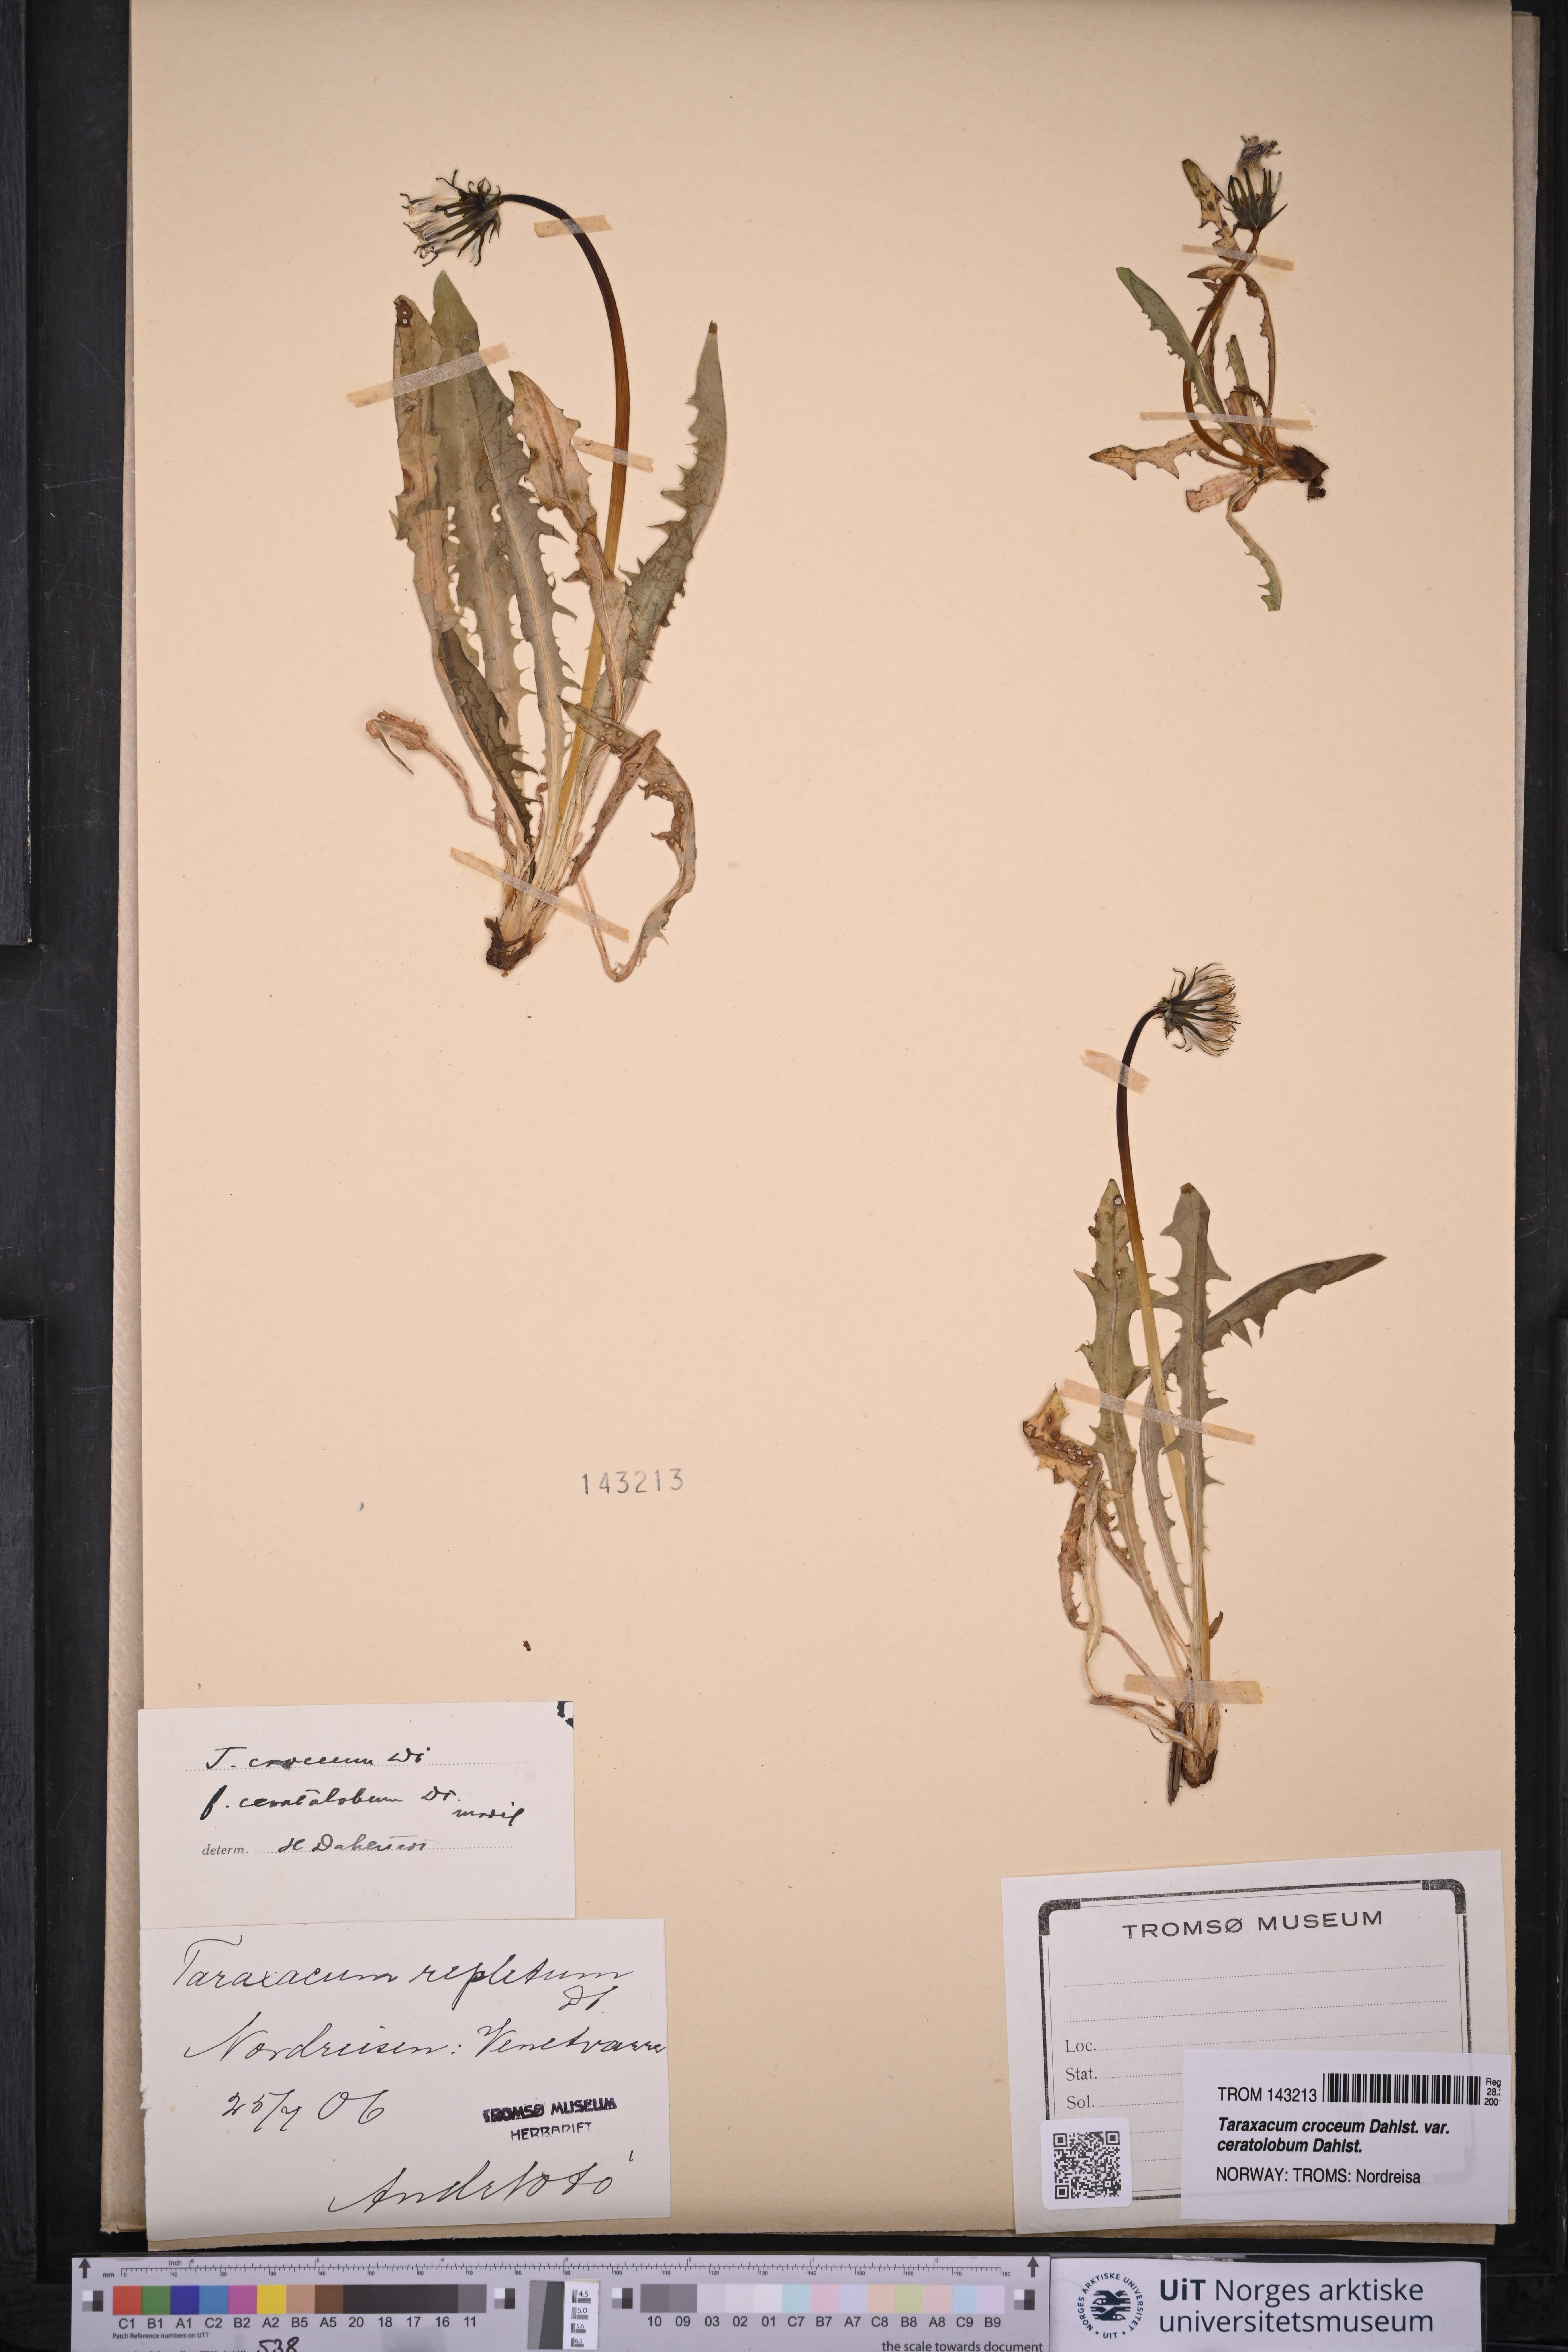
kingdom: Plantae
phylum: Tracheophyta
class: Magnoliopsida
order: Asterales
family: Asteraceae
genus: Taraxacum
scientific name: Taraxacum croceum
